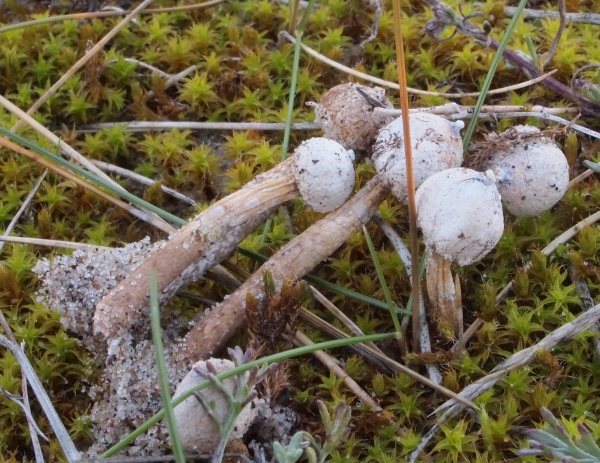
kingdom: Fungi
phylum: Basidiomycota
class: Agaricomycetes
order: Agaricales
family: Agaricaceae
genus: Tulostoma
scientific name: Tulostoma brumale
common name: vinter-stilkbovist
